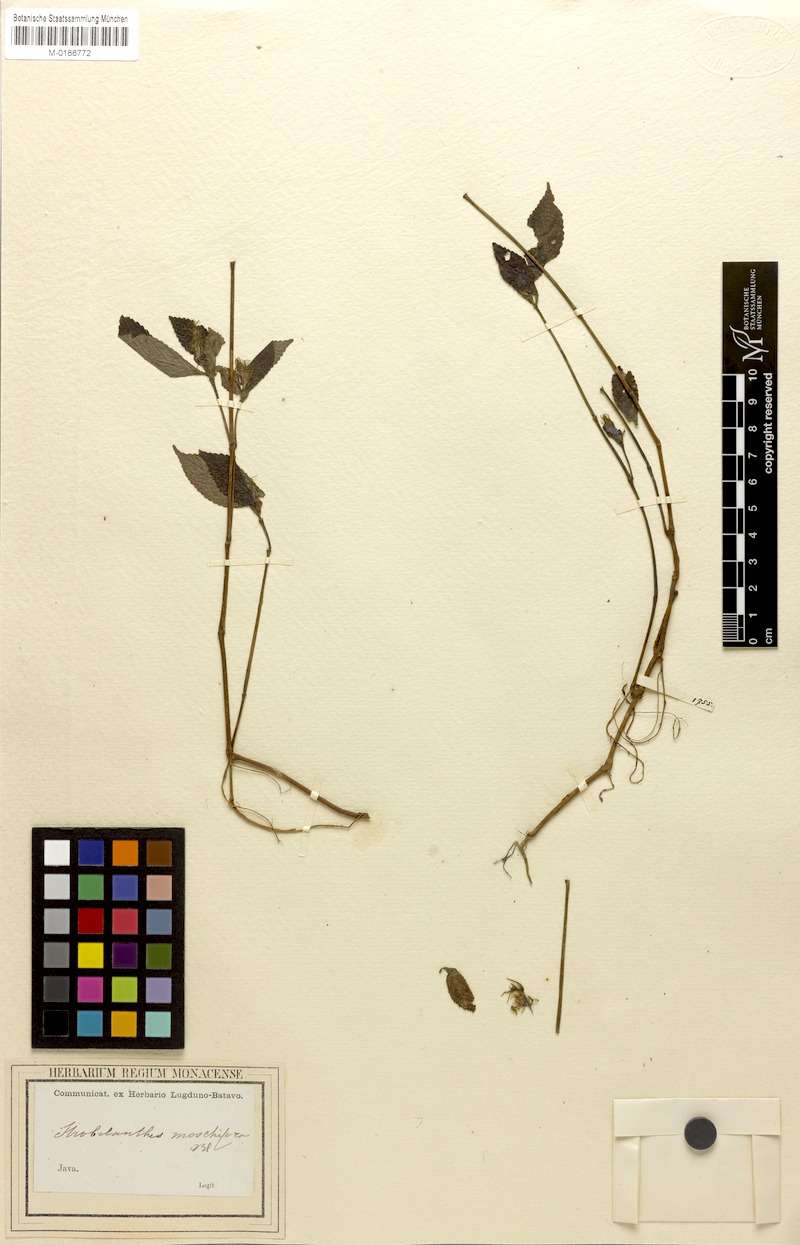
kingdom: Plantae
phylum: Tracheophyta
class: Magnoliopsida
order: Lamiales
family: Acanthaceae
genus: Strobilanthes
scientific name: Strobilanthes moschifera
